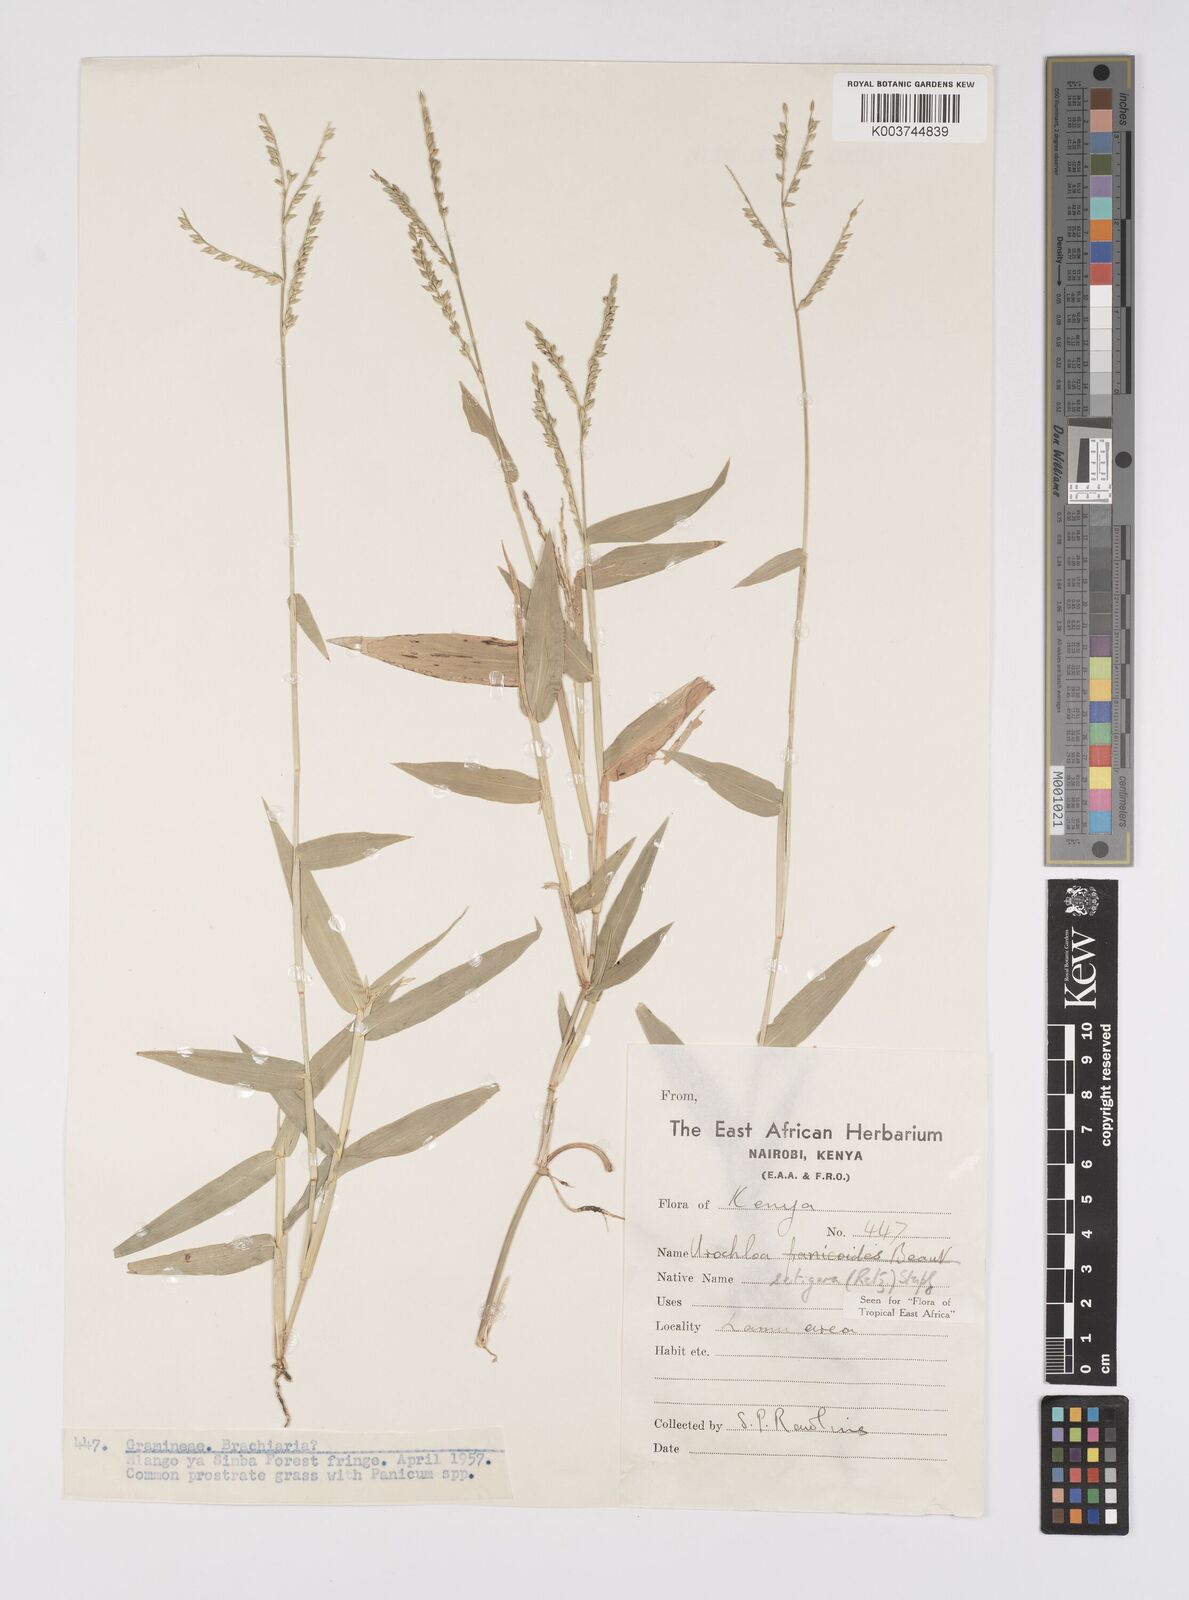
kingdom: Plantae
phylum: Tracheophyta
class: Liliopsida
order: Poales
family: Poaceae
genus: Urochloa
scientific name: Urochloa trichopodioides
